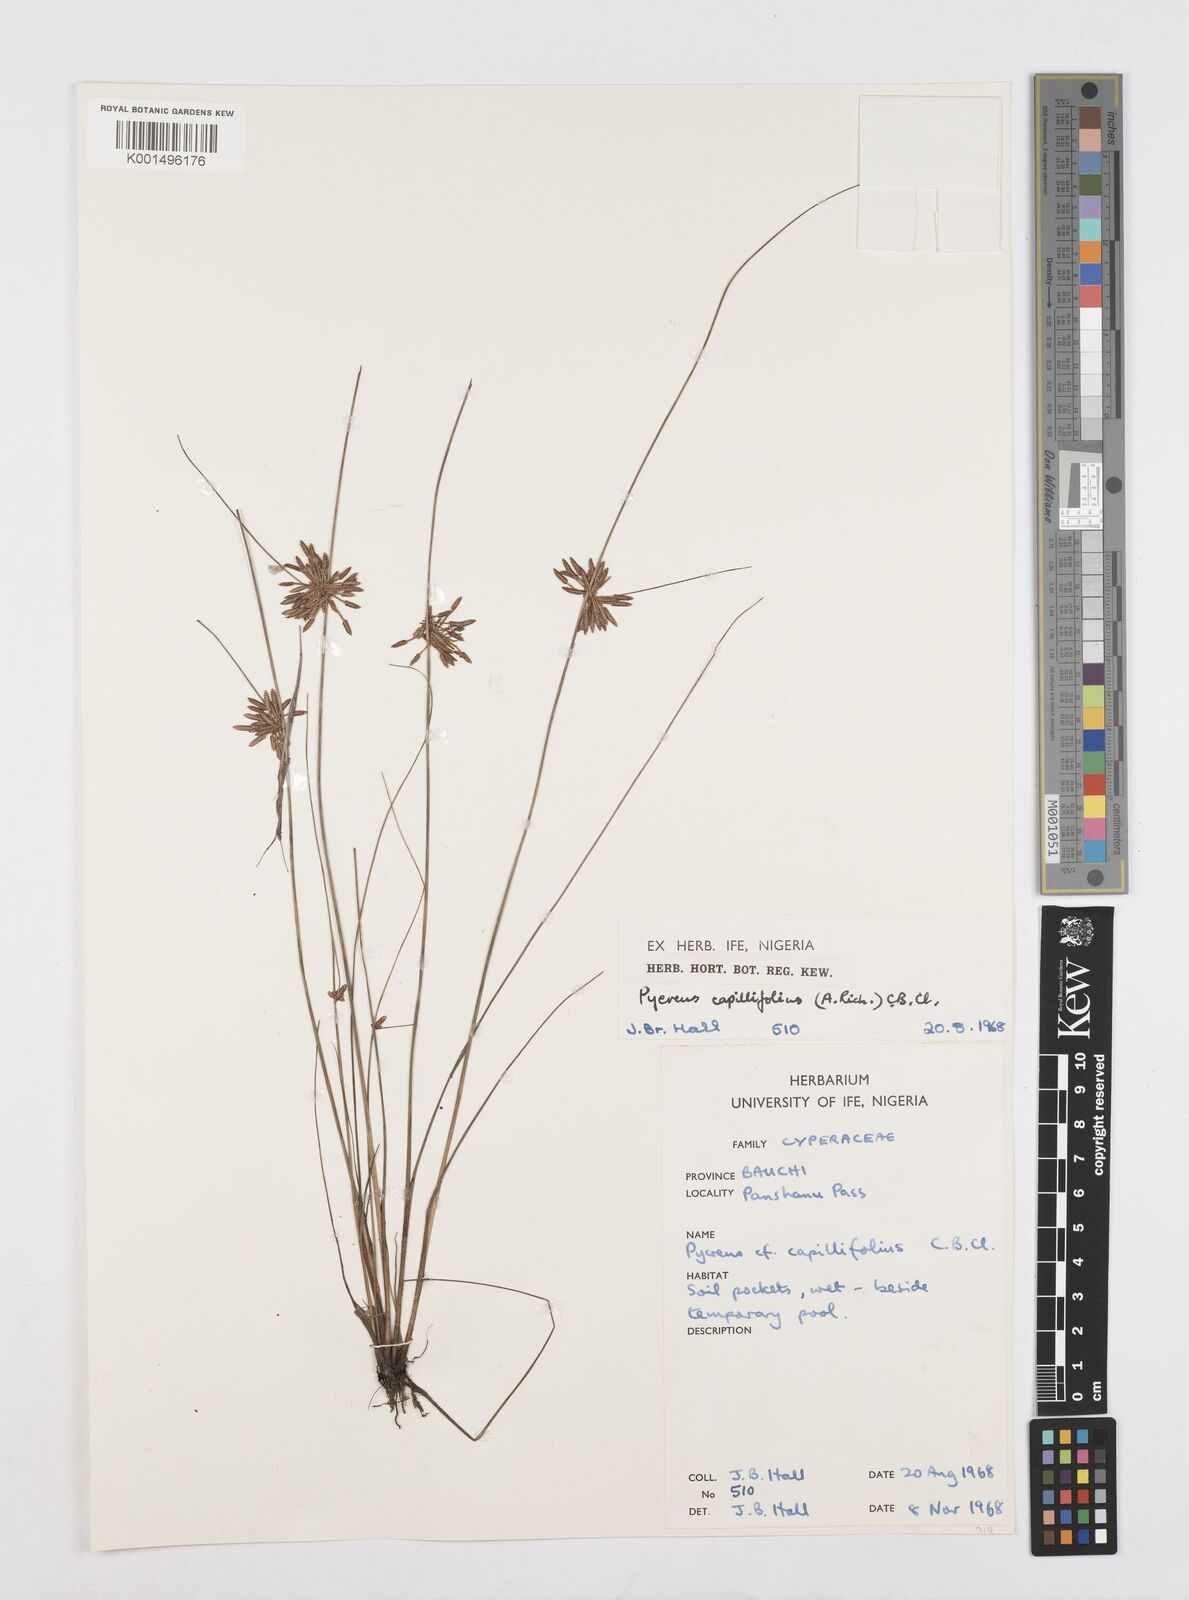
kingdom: Plantae
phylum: Tracheophyta
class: Liliopsida
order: Poales
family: Cyperaceae
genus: Cyperus
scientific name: Cyperus capillifolius
